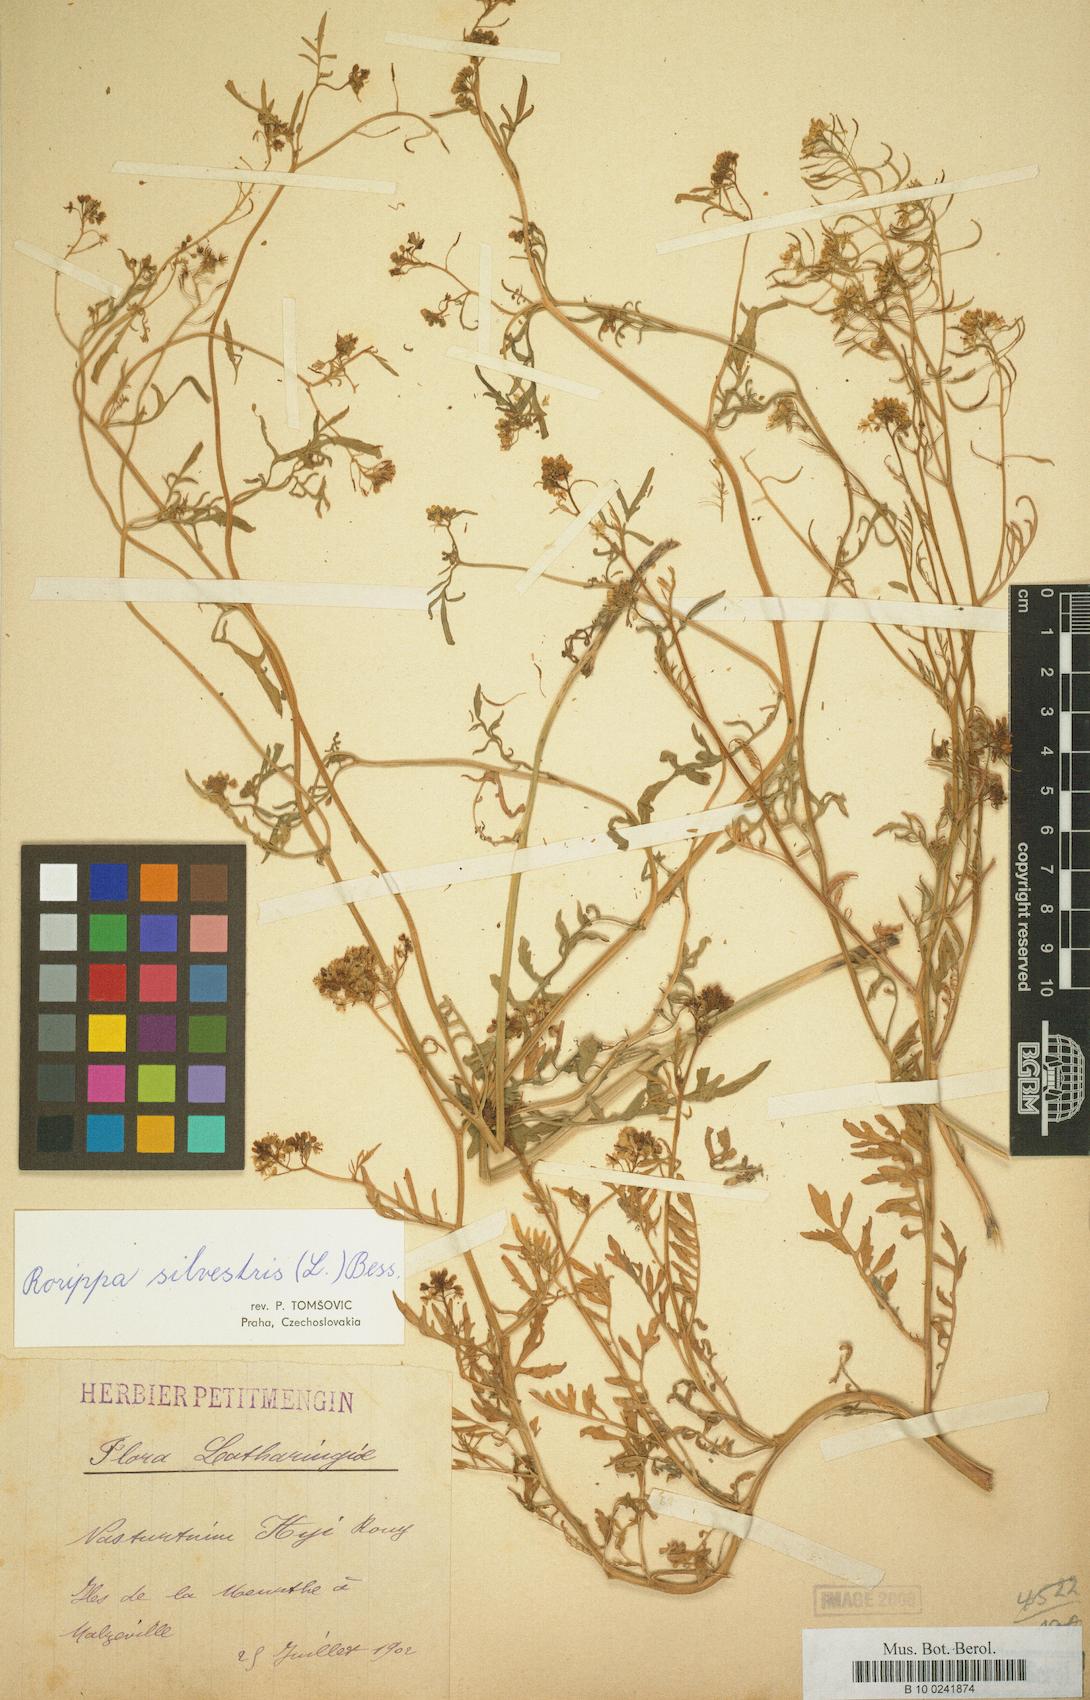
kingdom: Plantae
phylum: Tracheophyta
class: Magnoliopsida
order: Brassicales
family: Brassicaceae
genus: Rorippa
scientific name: Rorippa sylvestris
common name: Creeping yellowcress
